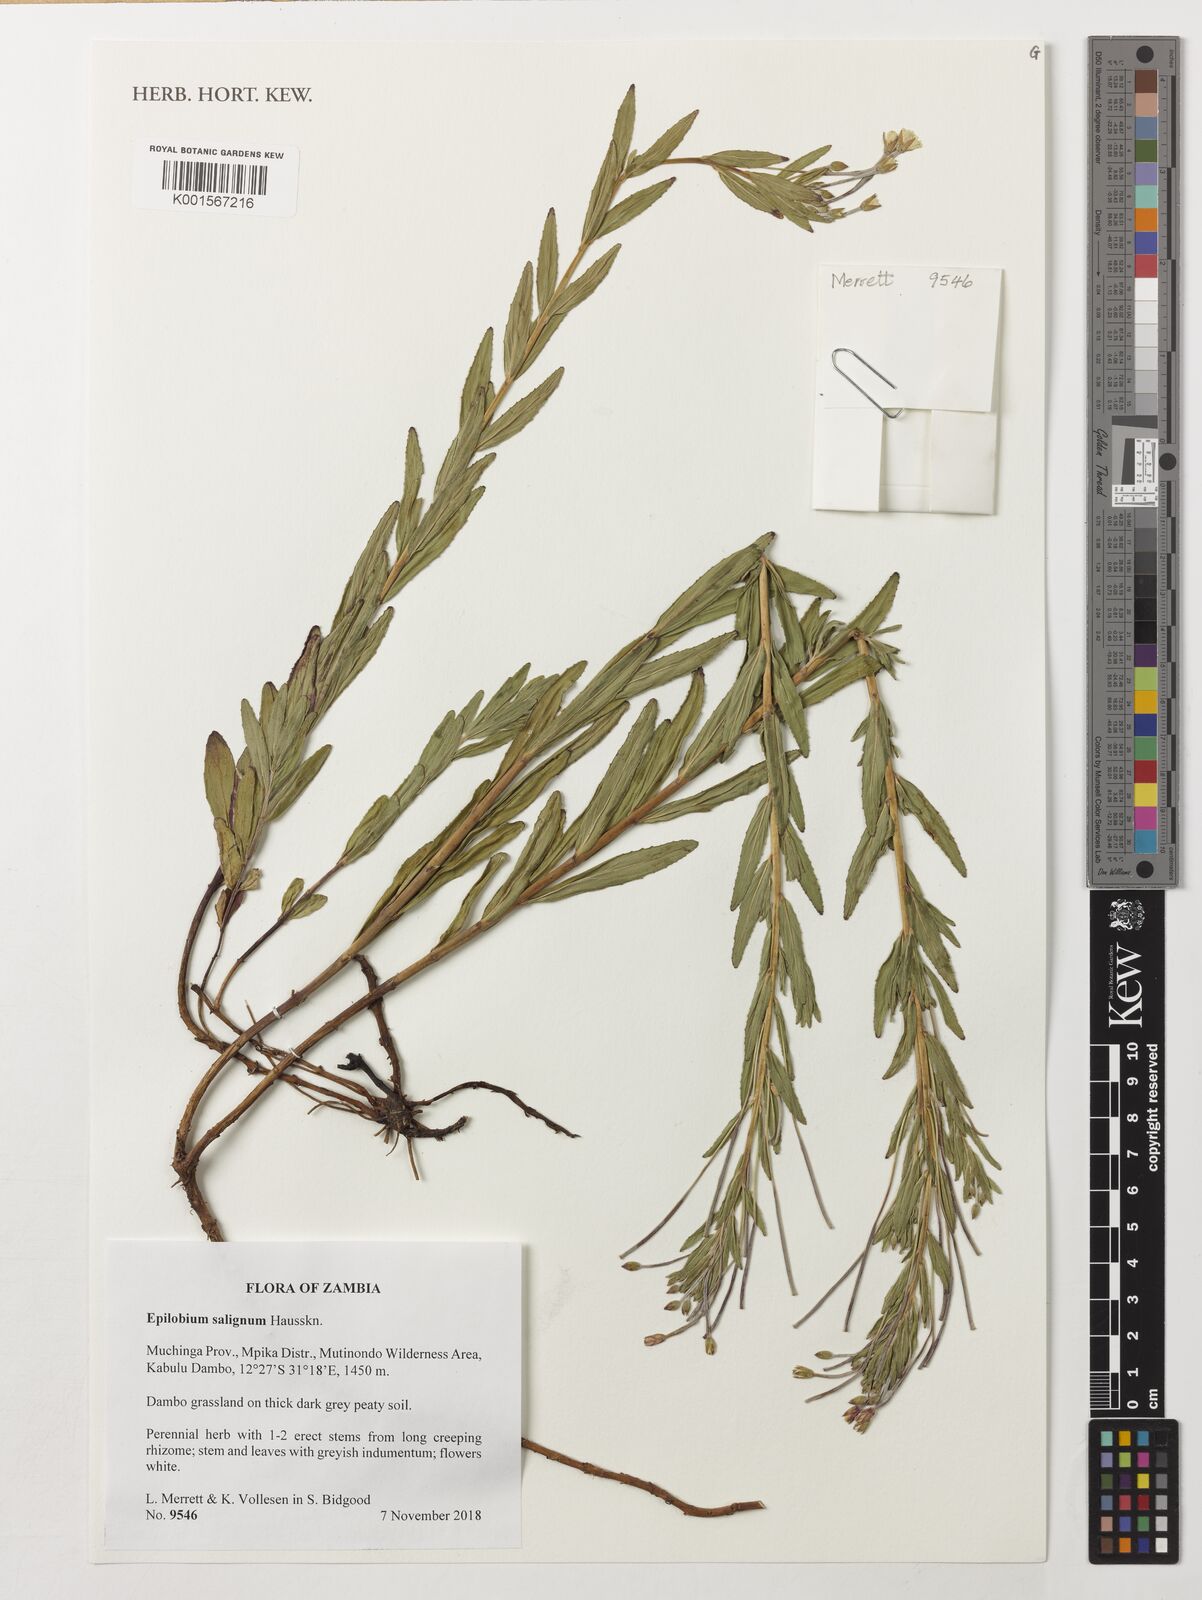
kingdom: Plantae
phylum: Tracheophyta
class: Magnoliopsida
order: Myrtales
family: Onagraceae
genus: Epilobium
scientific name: Epilobium salignum
